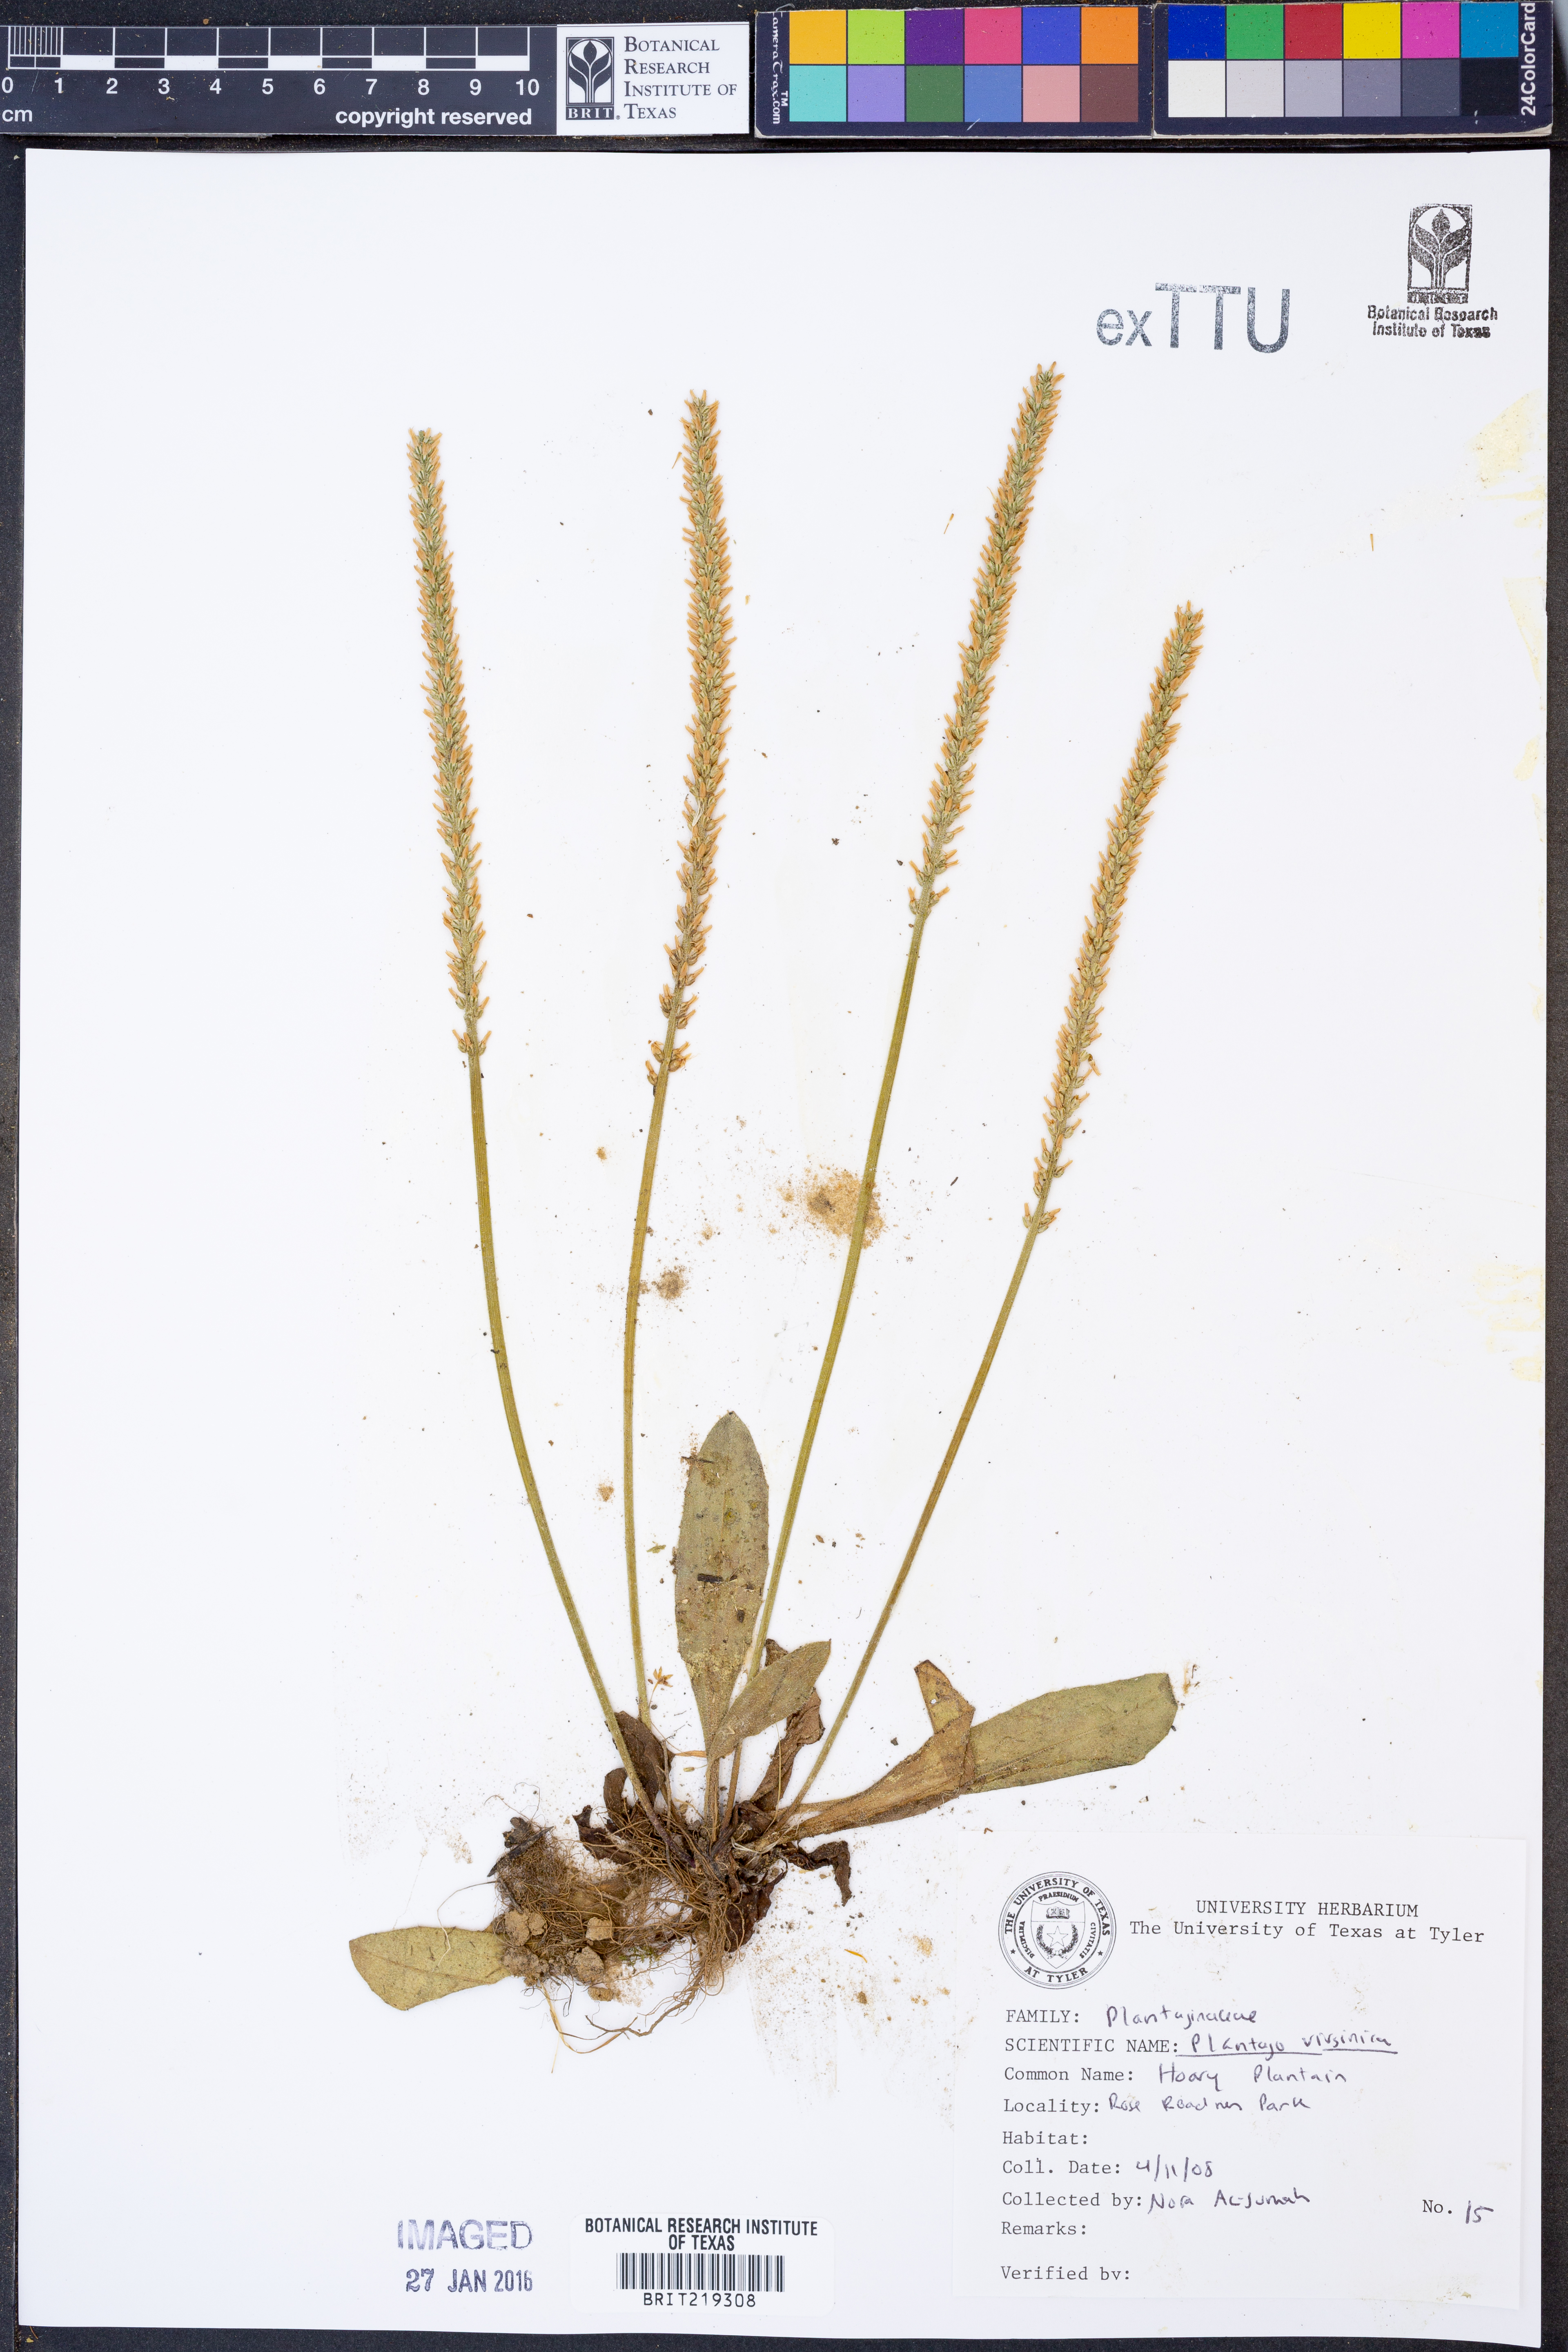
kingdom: Plantae
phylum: Tracheophyta
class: Magnoliopsida
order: Lamiales
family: Plantaginaceae
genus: Plantago
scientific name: Plantago virginica
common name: Hoary plantain
